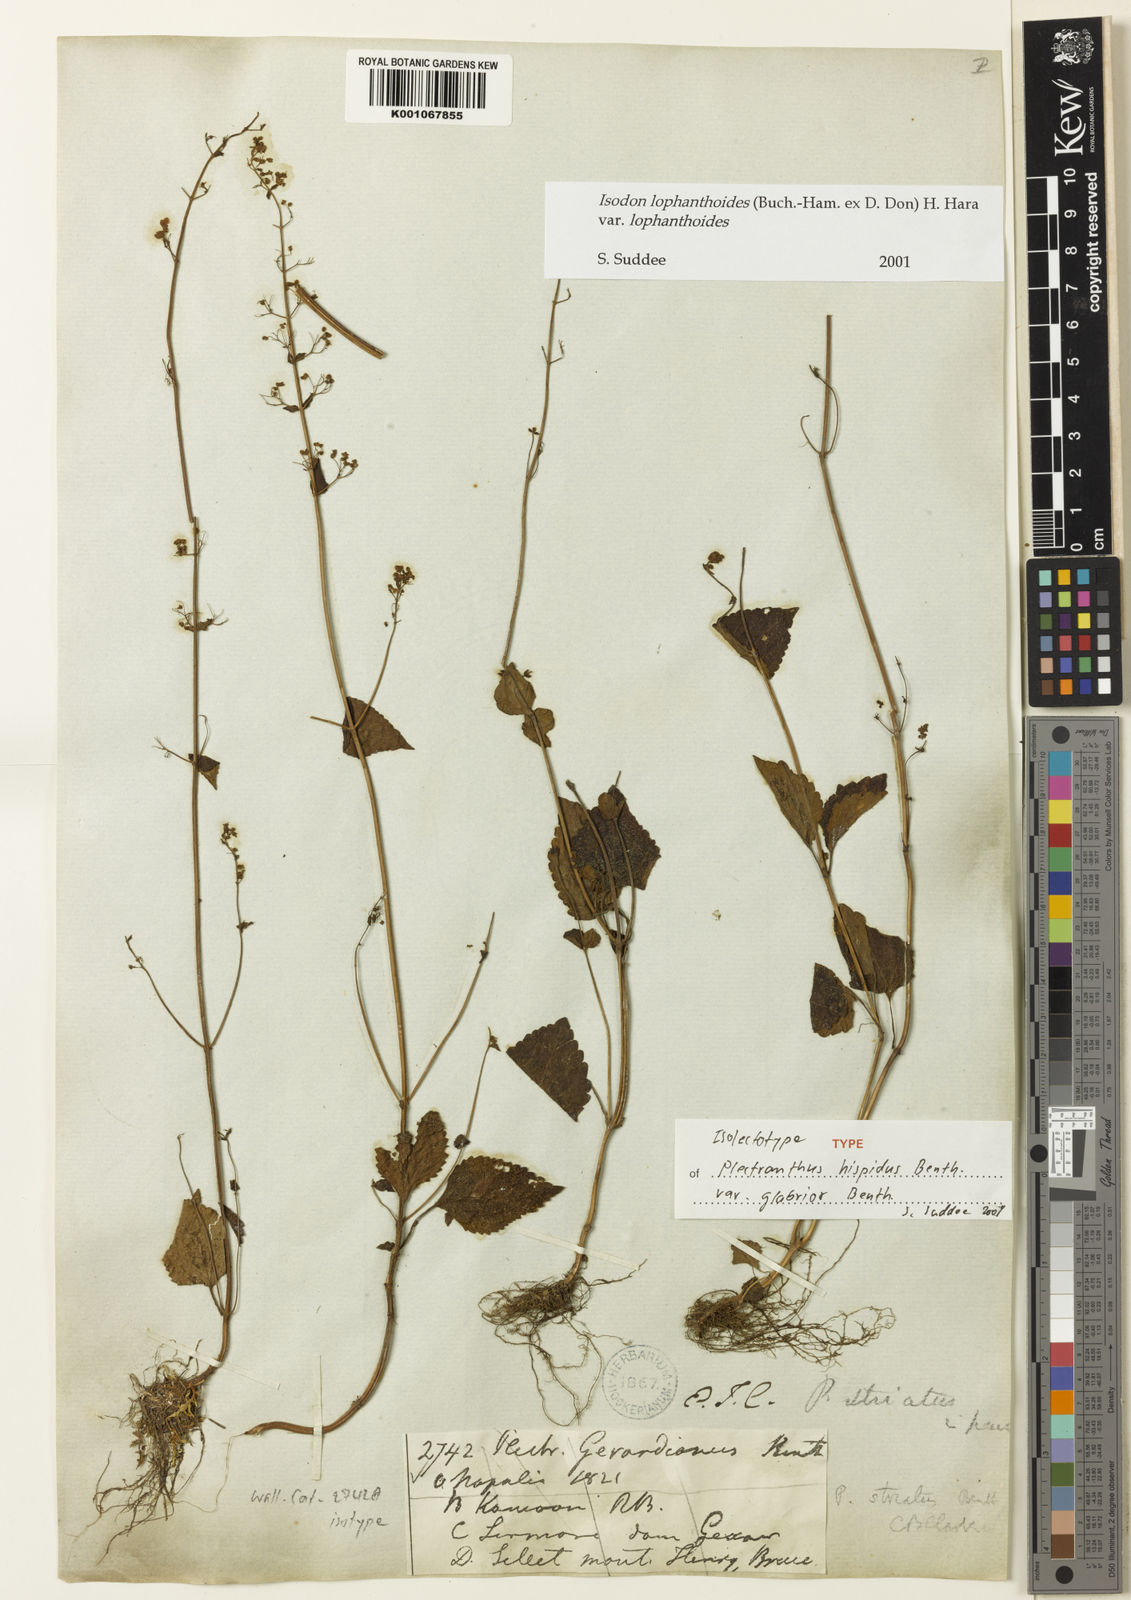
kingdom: Plantae
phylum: Tracheophyta
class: Magnoliopsida
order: Lamiales
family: Lamiaceae
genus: Isodon
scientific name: Isodon lophanthoides
